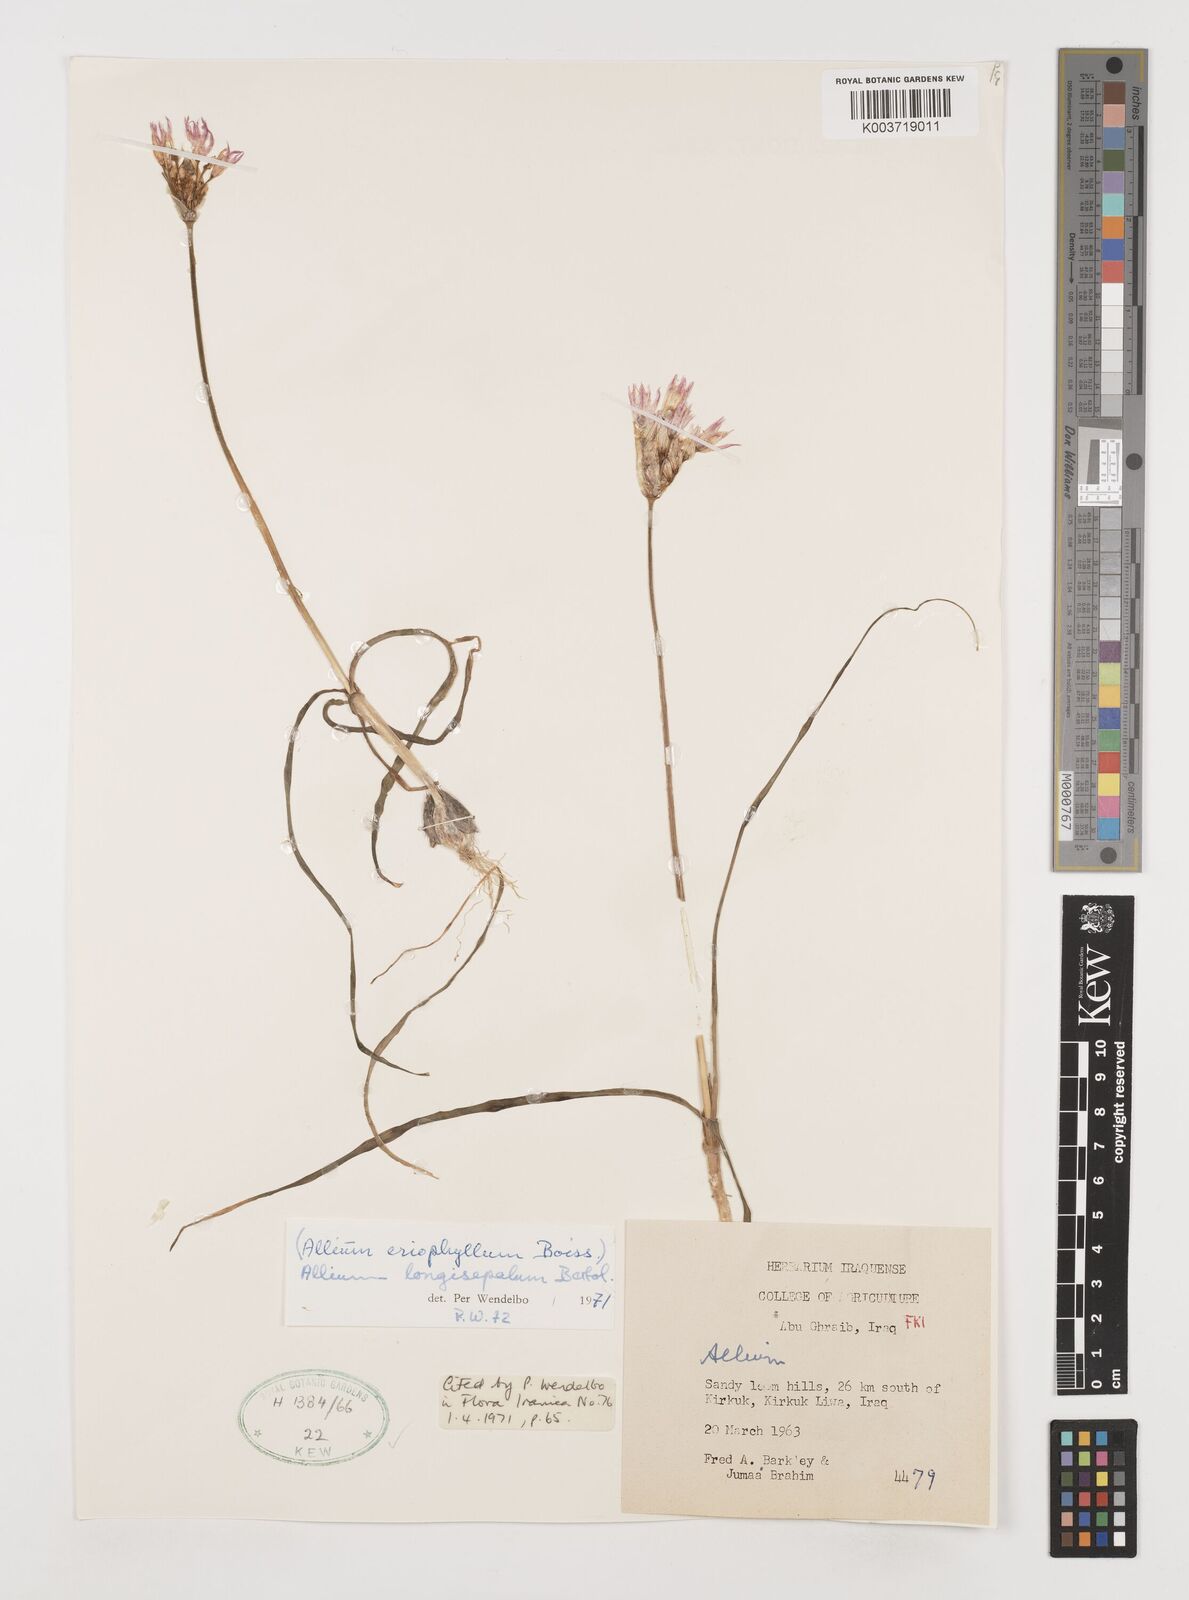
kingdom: Plantae
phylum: Tracheophyta
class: Liliopsida
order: Asparagales
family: Amaryllidaceae
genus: Allium
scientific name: Allium longisepalum
